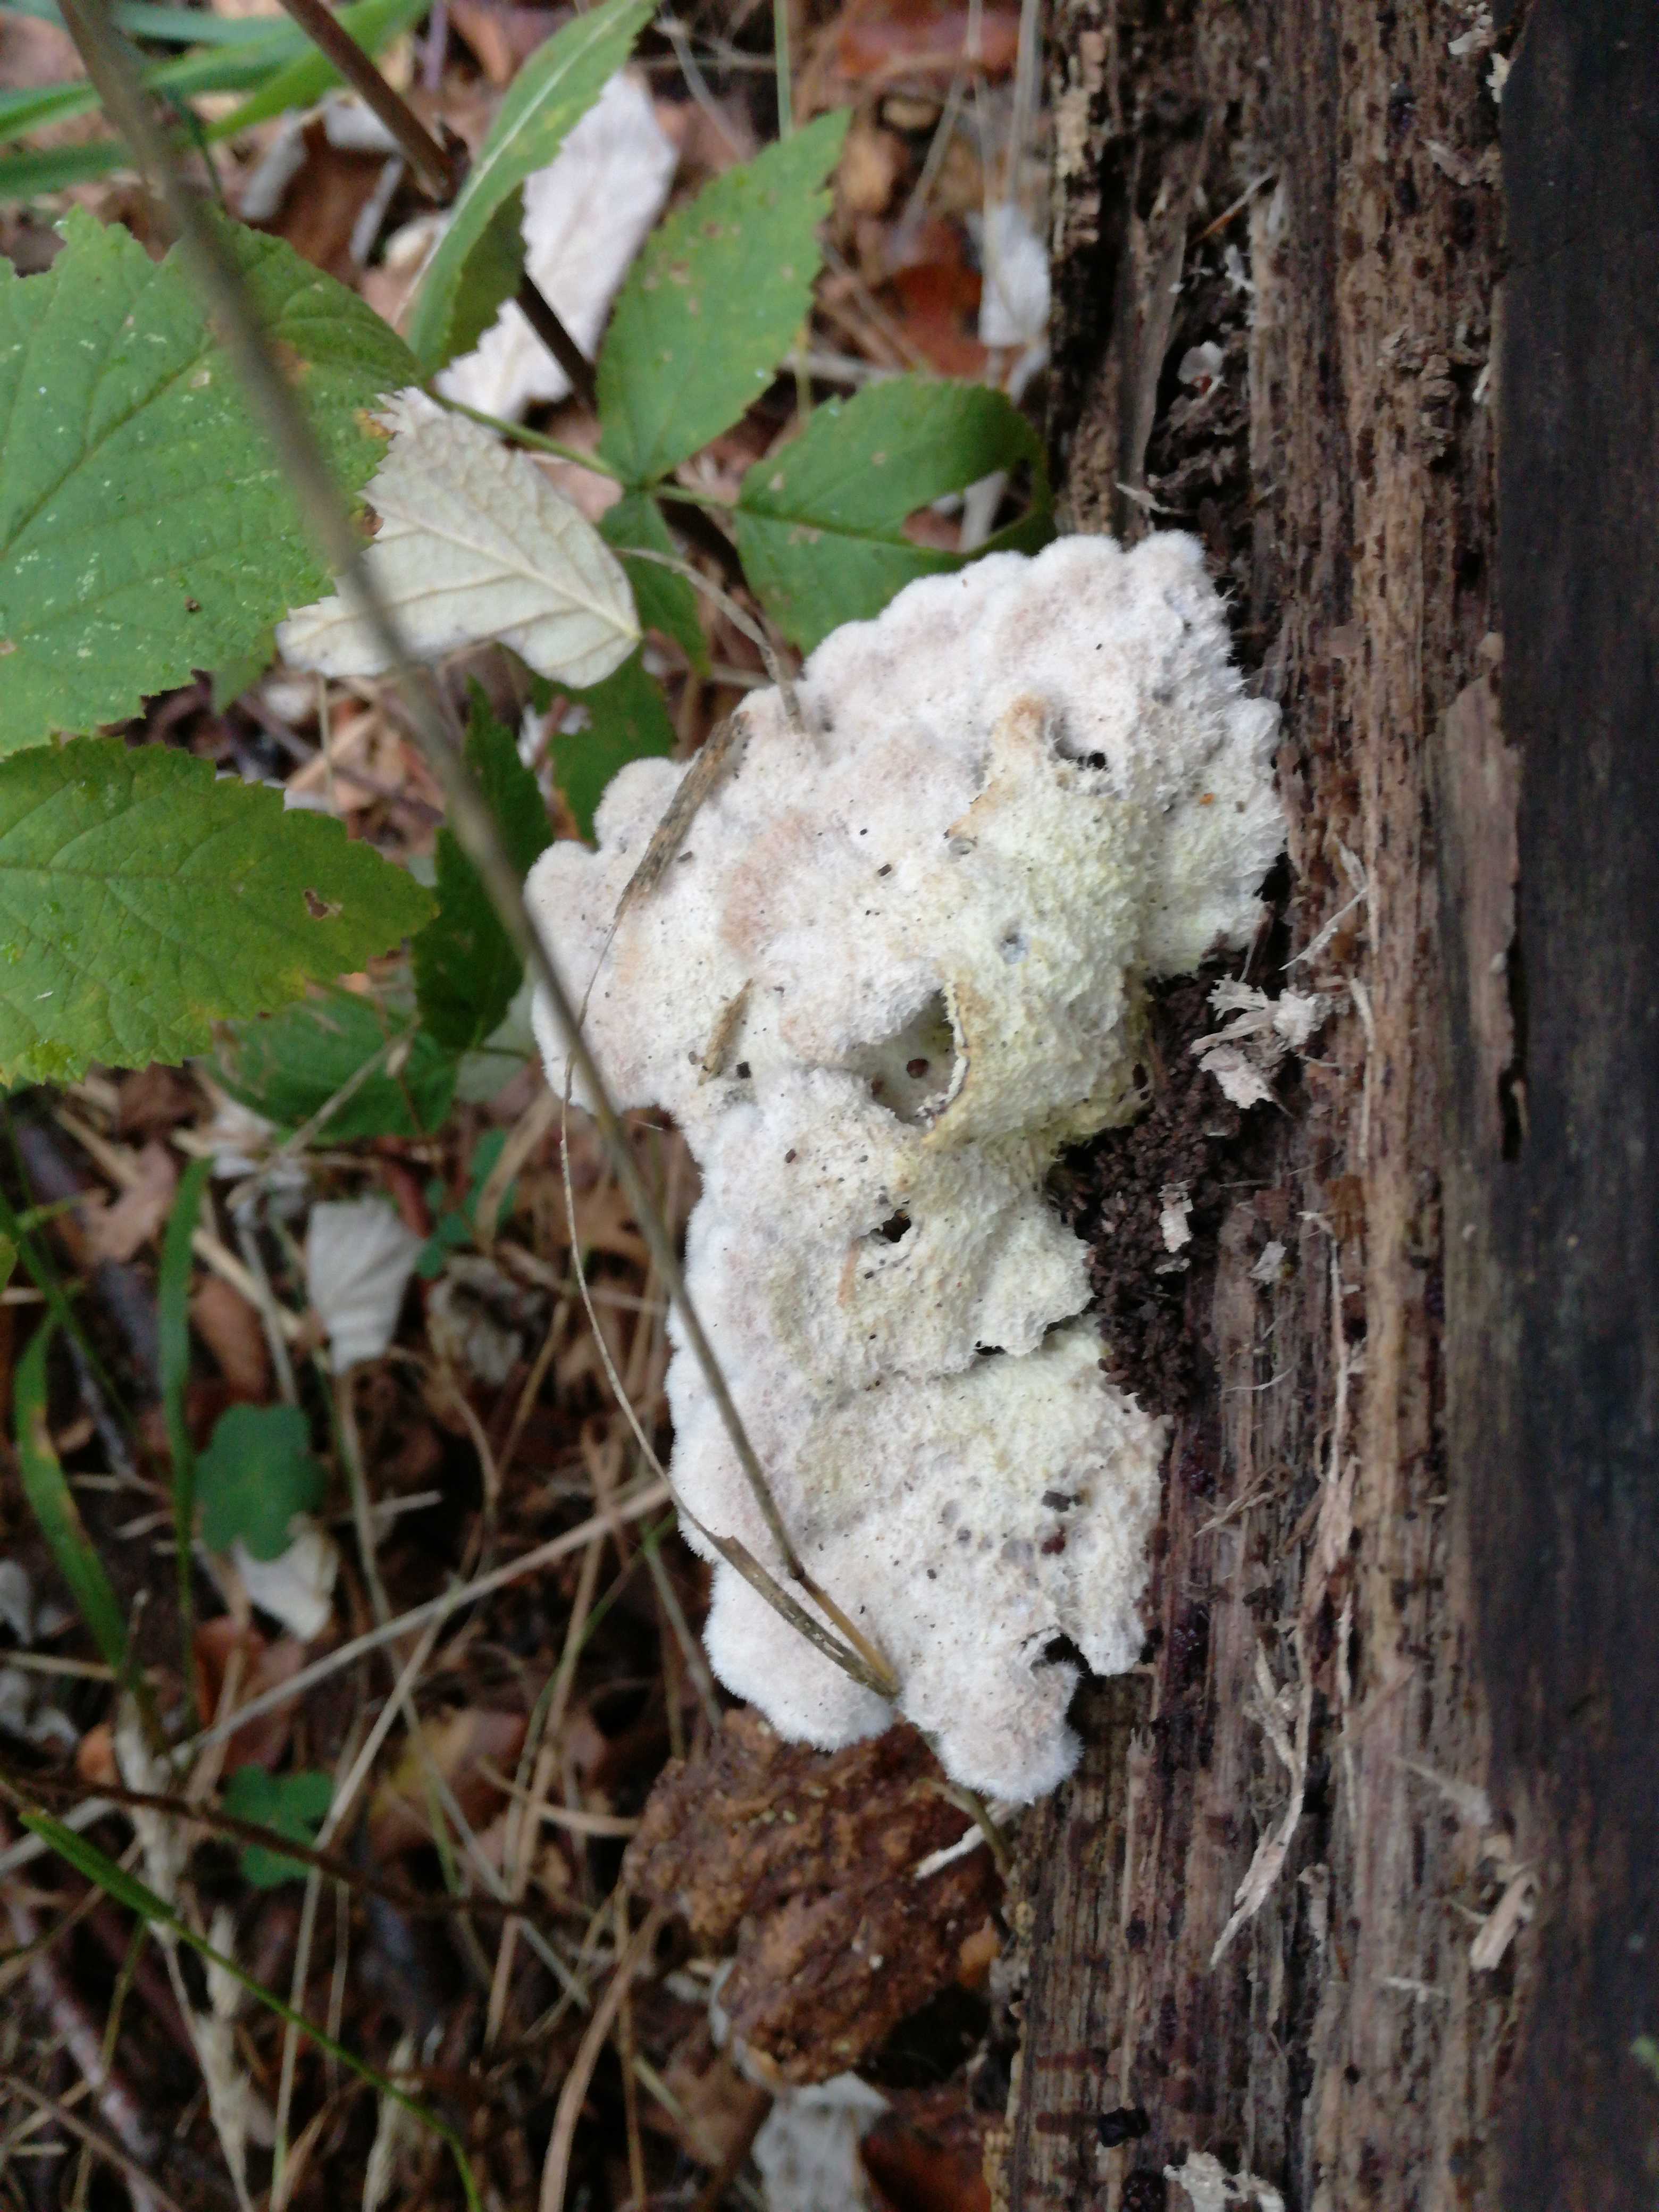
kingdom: Fungi
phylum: Basidiomycota
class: Agaricomycetes
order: Agaricales
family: Schizophyllaceae
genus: Schizophyllum
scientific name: Schizophyllum commune
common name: kløvblad
